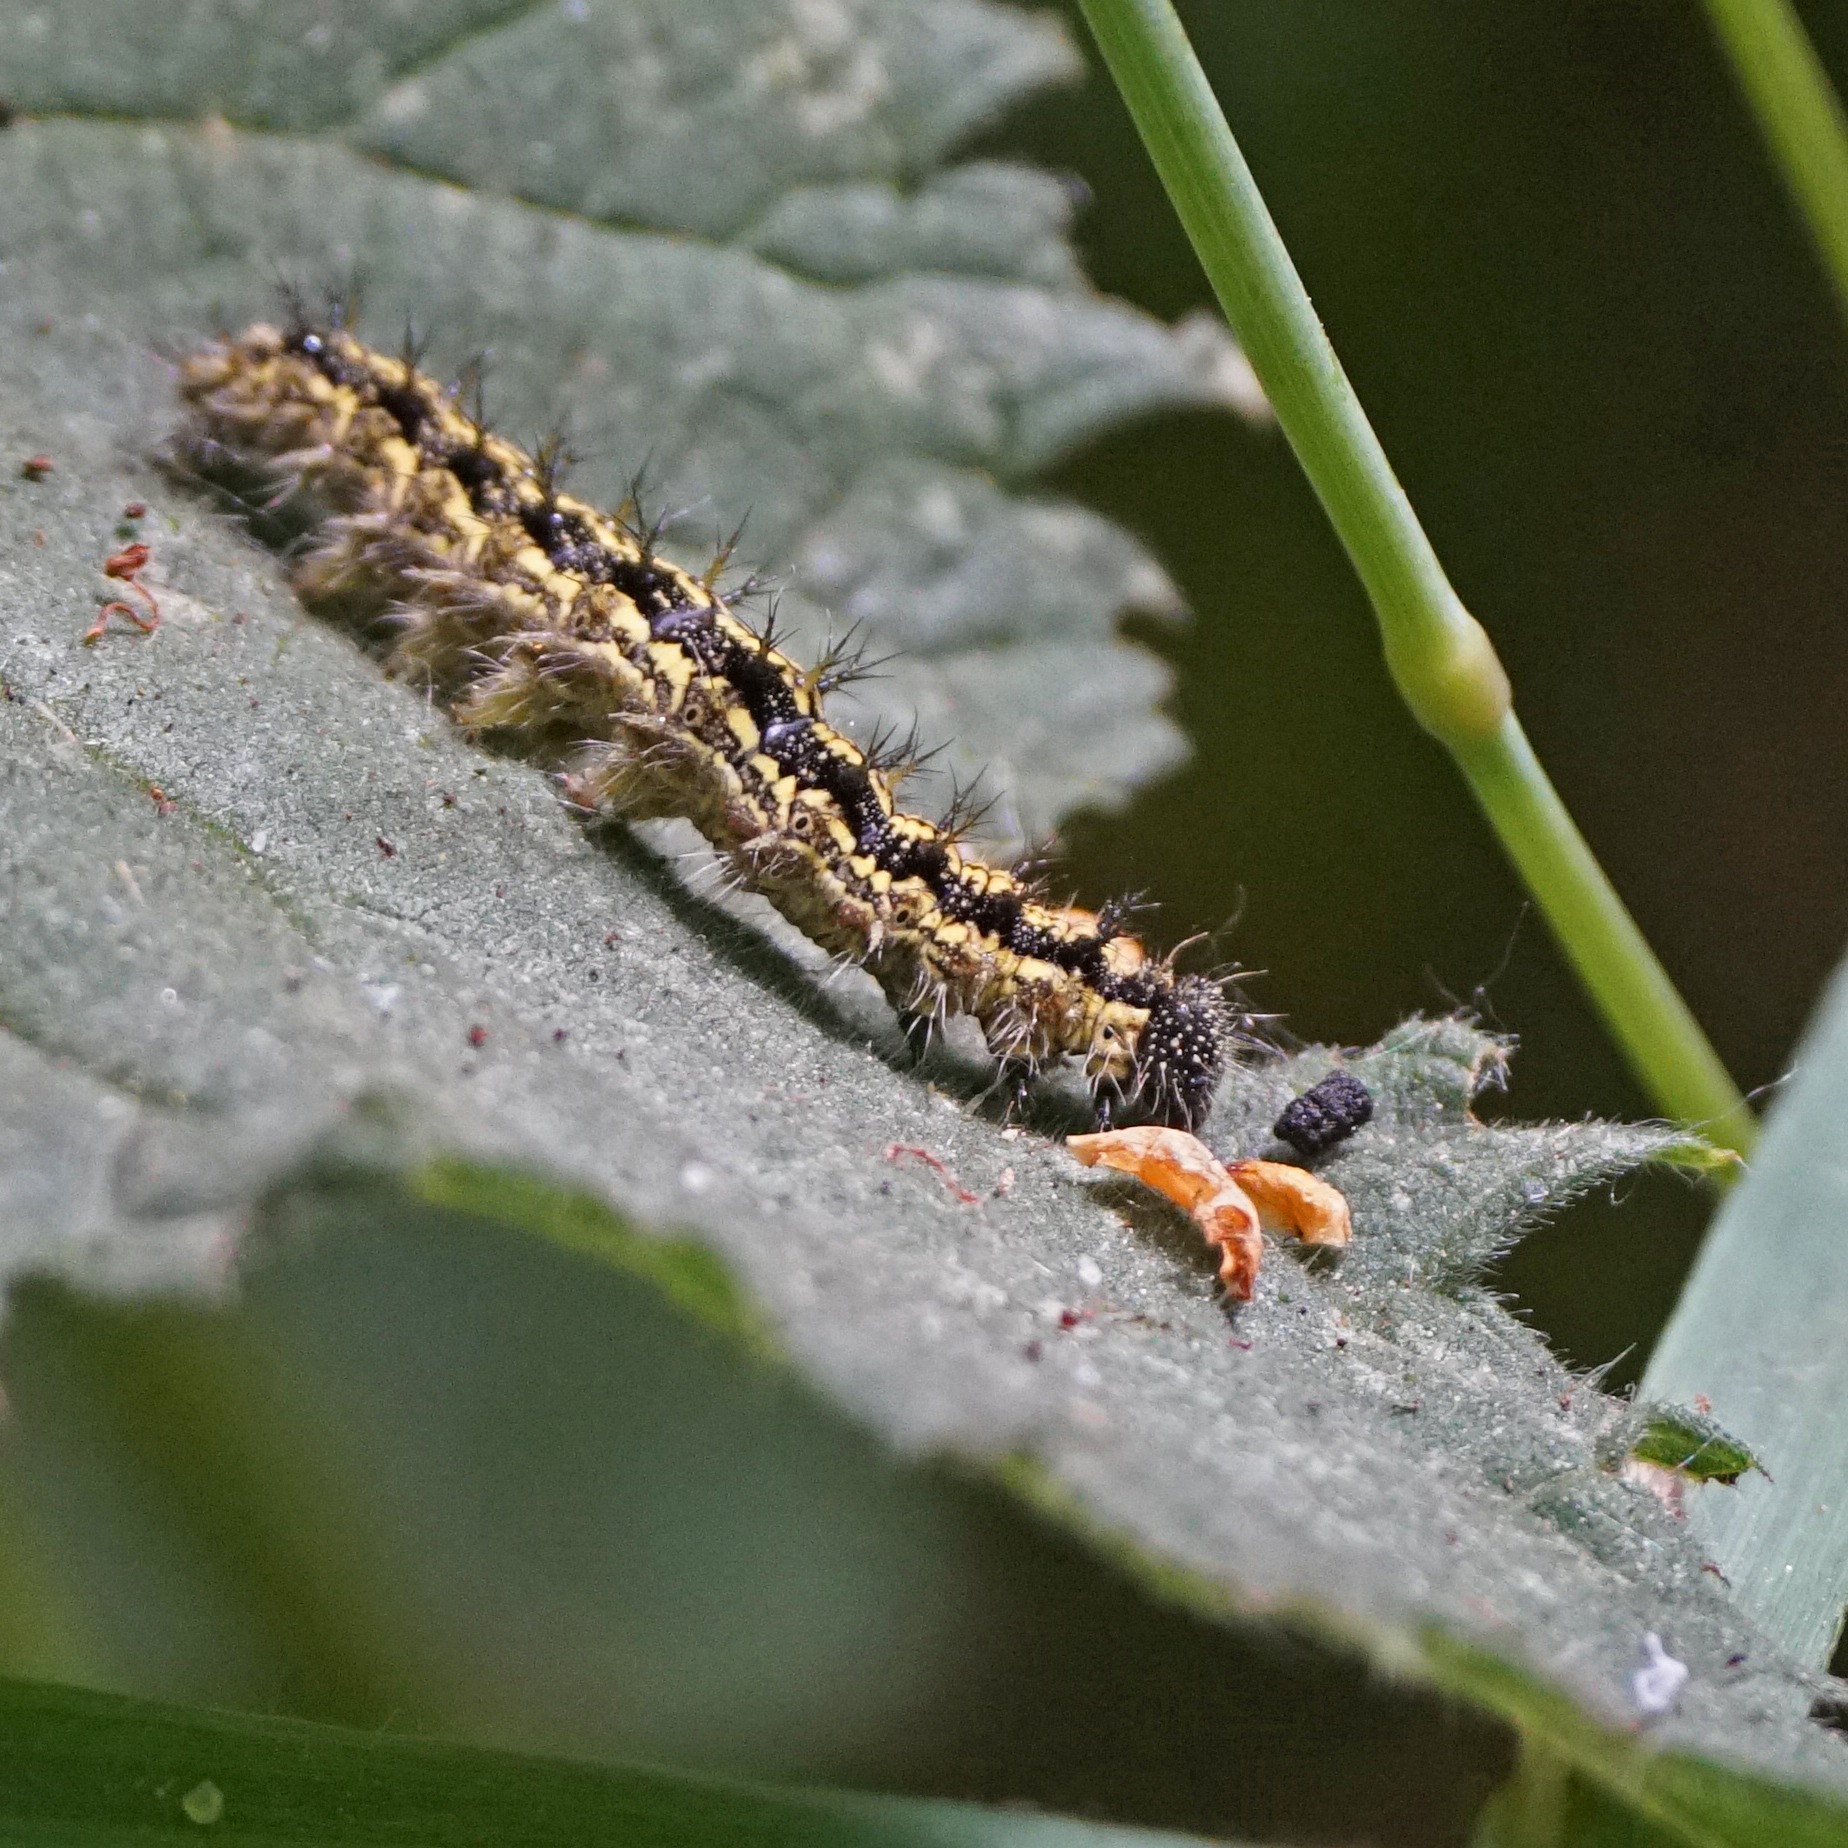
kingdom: Animalia
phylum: Arthropoda
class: Insecta
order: Lepidoptera
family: Nymphalidae
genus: Aglais
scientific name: Aglais urticae
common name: Nældens takvinge
